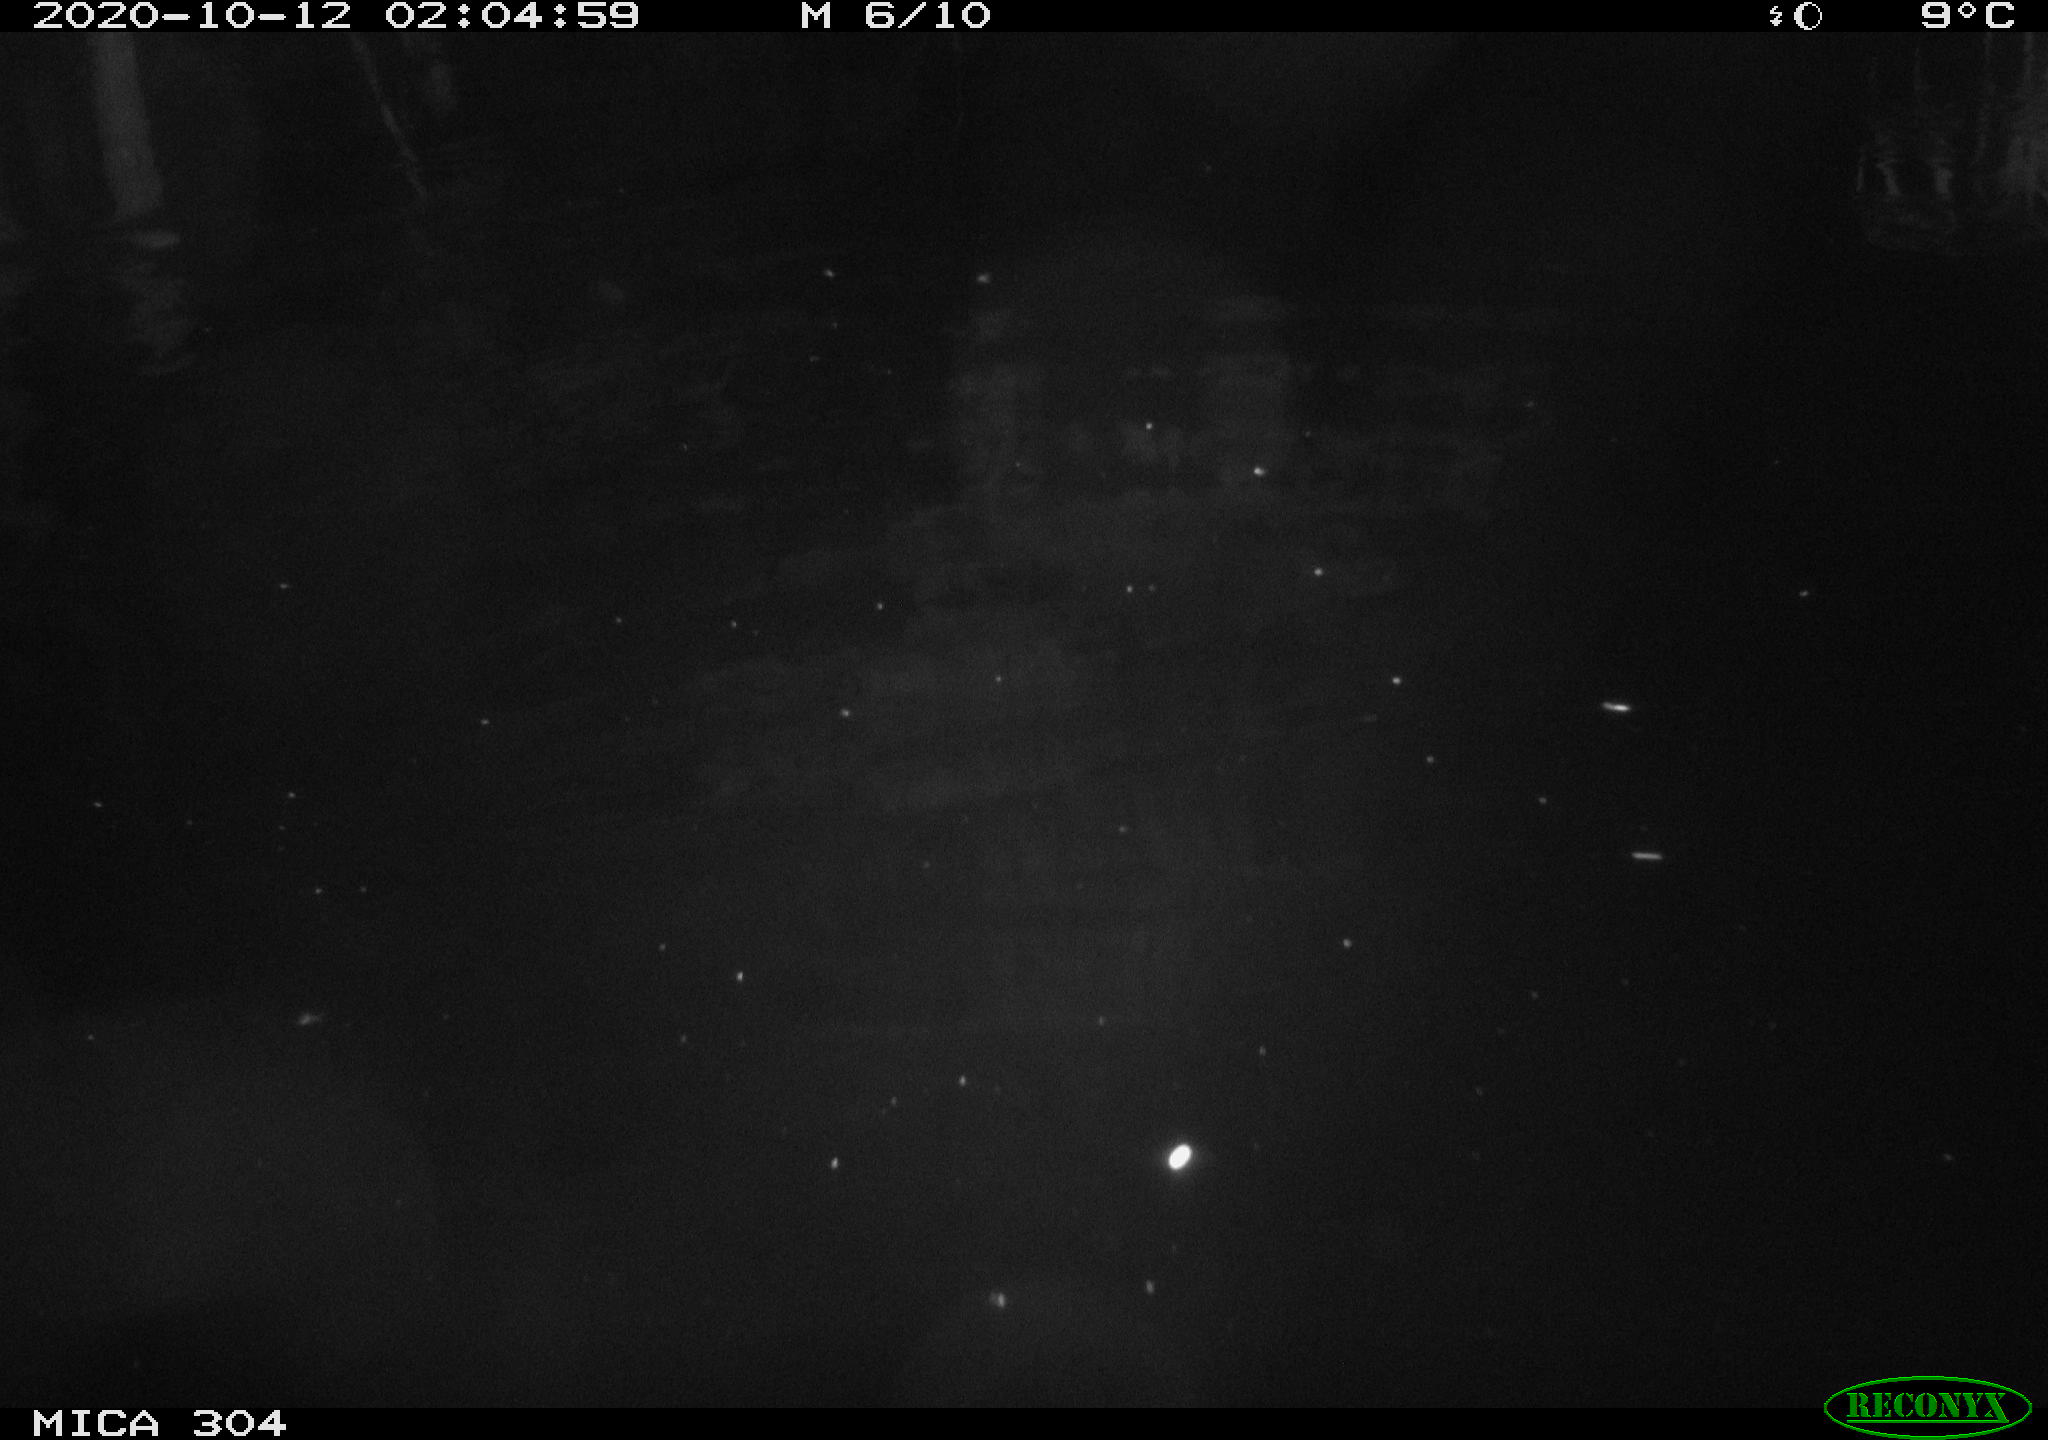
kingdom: Animalia
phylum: Chordata
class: Mammalia
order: Rodentia
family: Muridae
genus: Rattus
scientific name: Rattus norvegicus
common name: Brown rat
